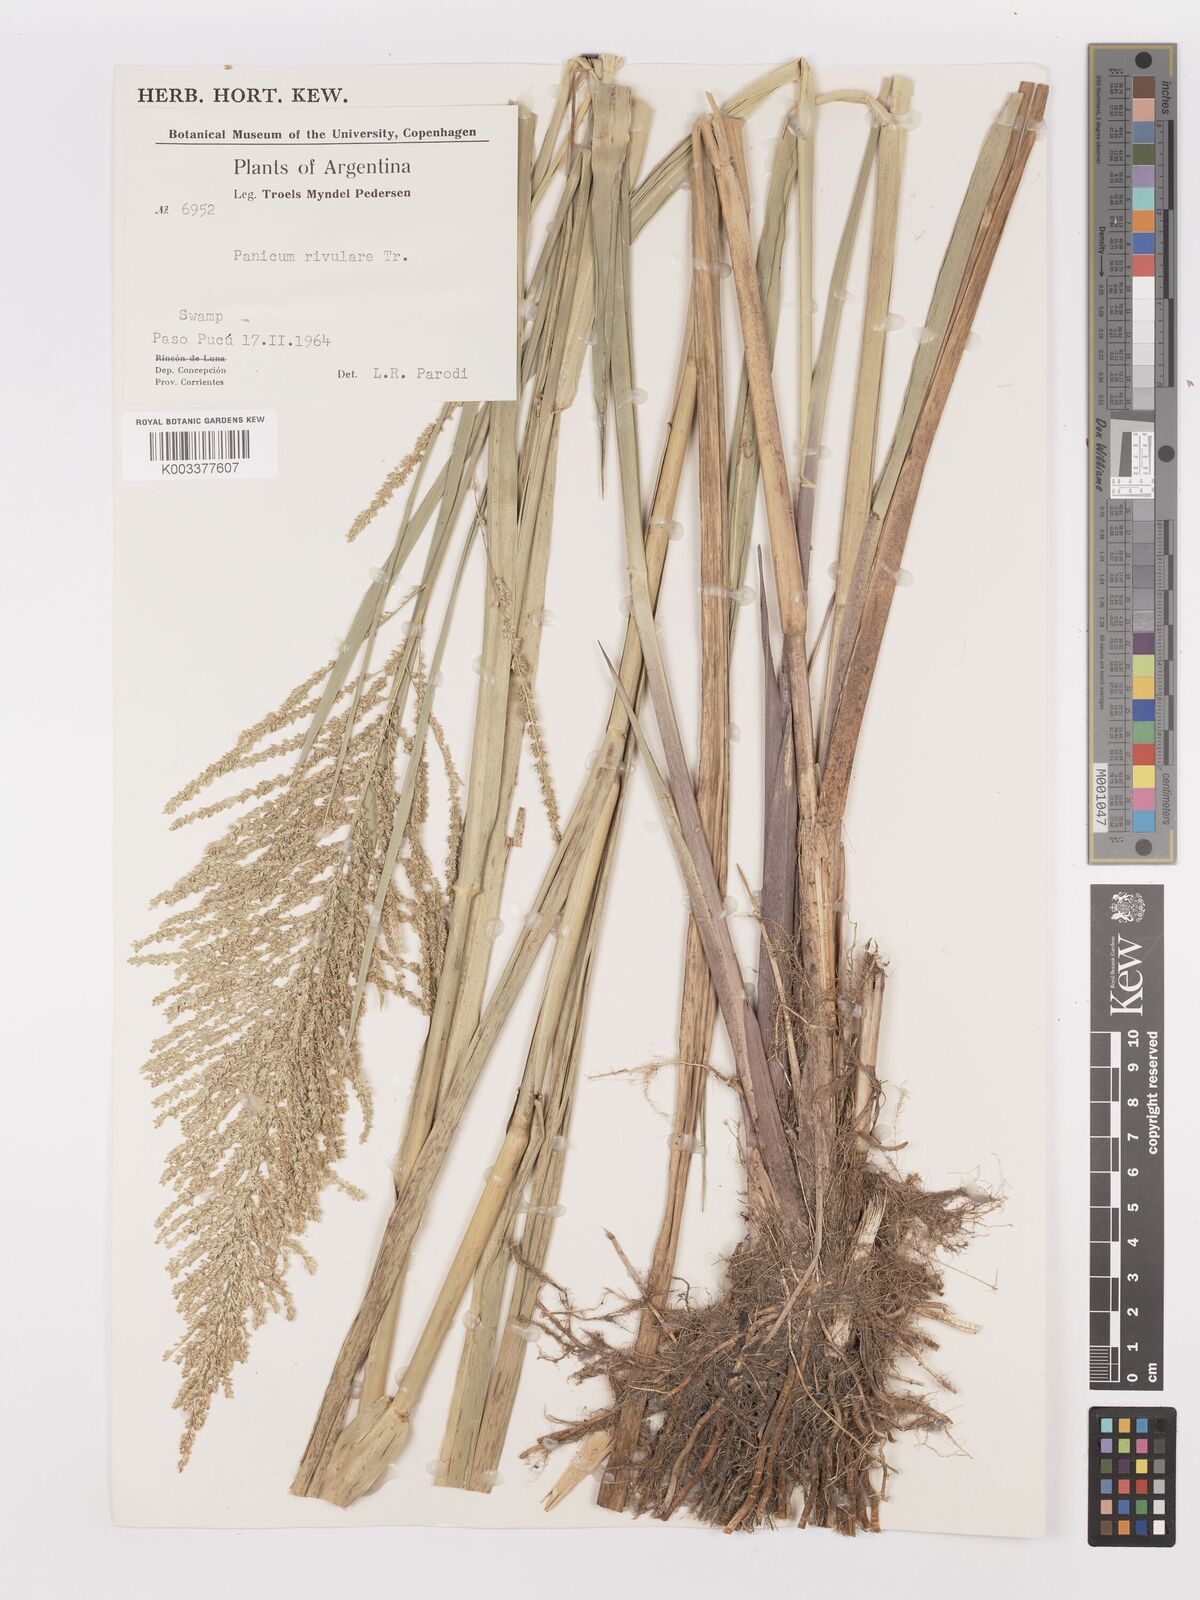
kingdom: Plantae
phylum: Tracheophyta
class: Liliopsida
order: Poales
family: Poaceae
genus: Hymenachne
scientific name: Hymenachne pernambucensis
